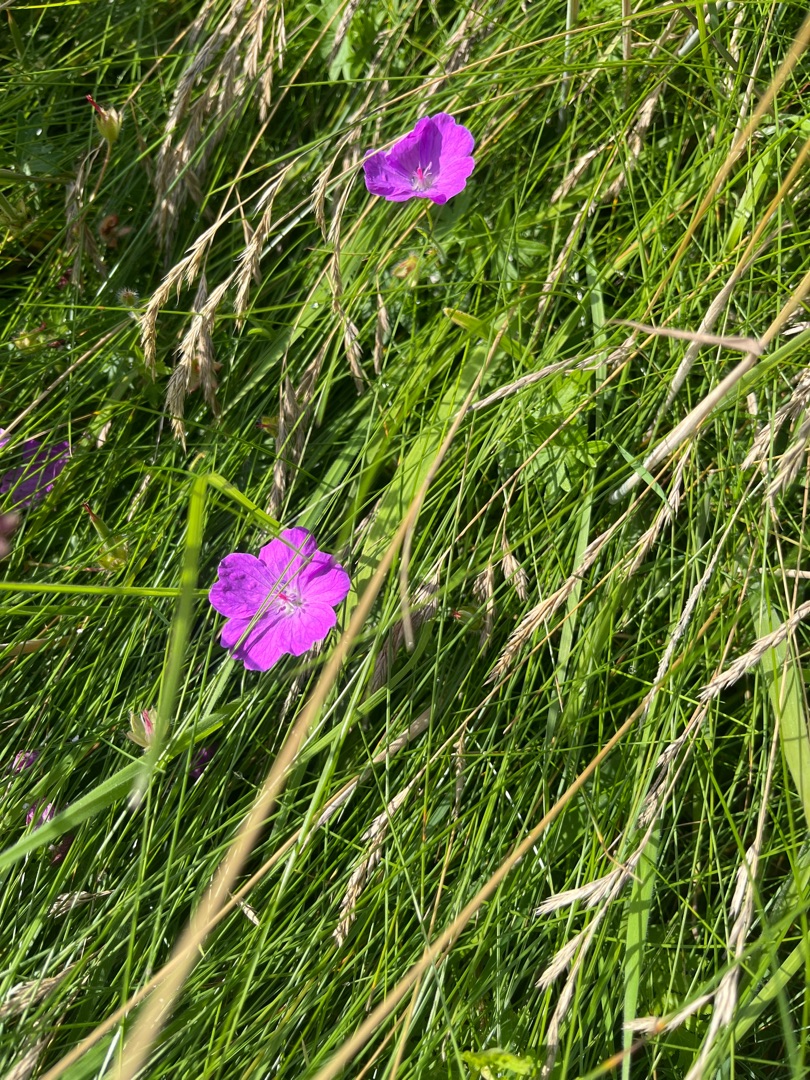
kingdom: Plantae
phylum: Tracheophyta
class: Magnoliopsida
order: Geraniales
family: Geraniaceae
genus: Geranium
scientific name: Geranium sanguineum
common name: Blodrød storkenæb
